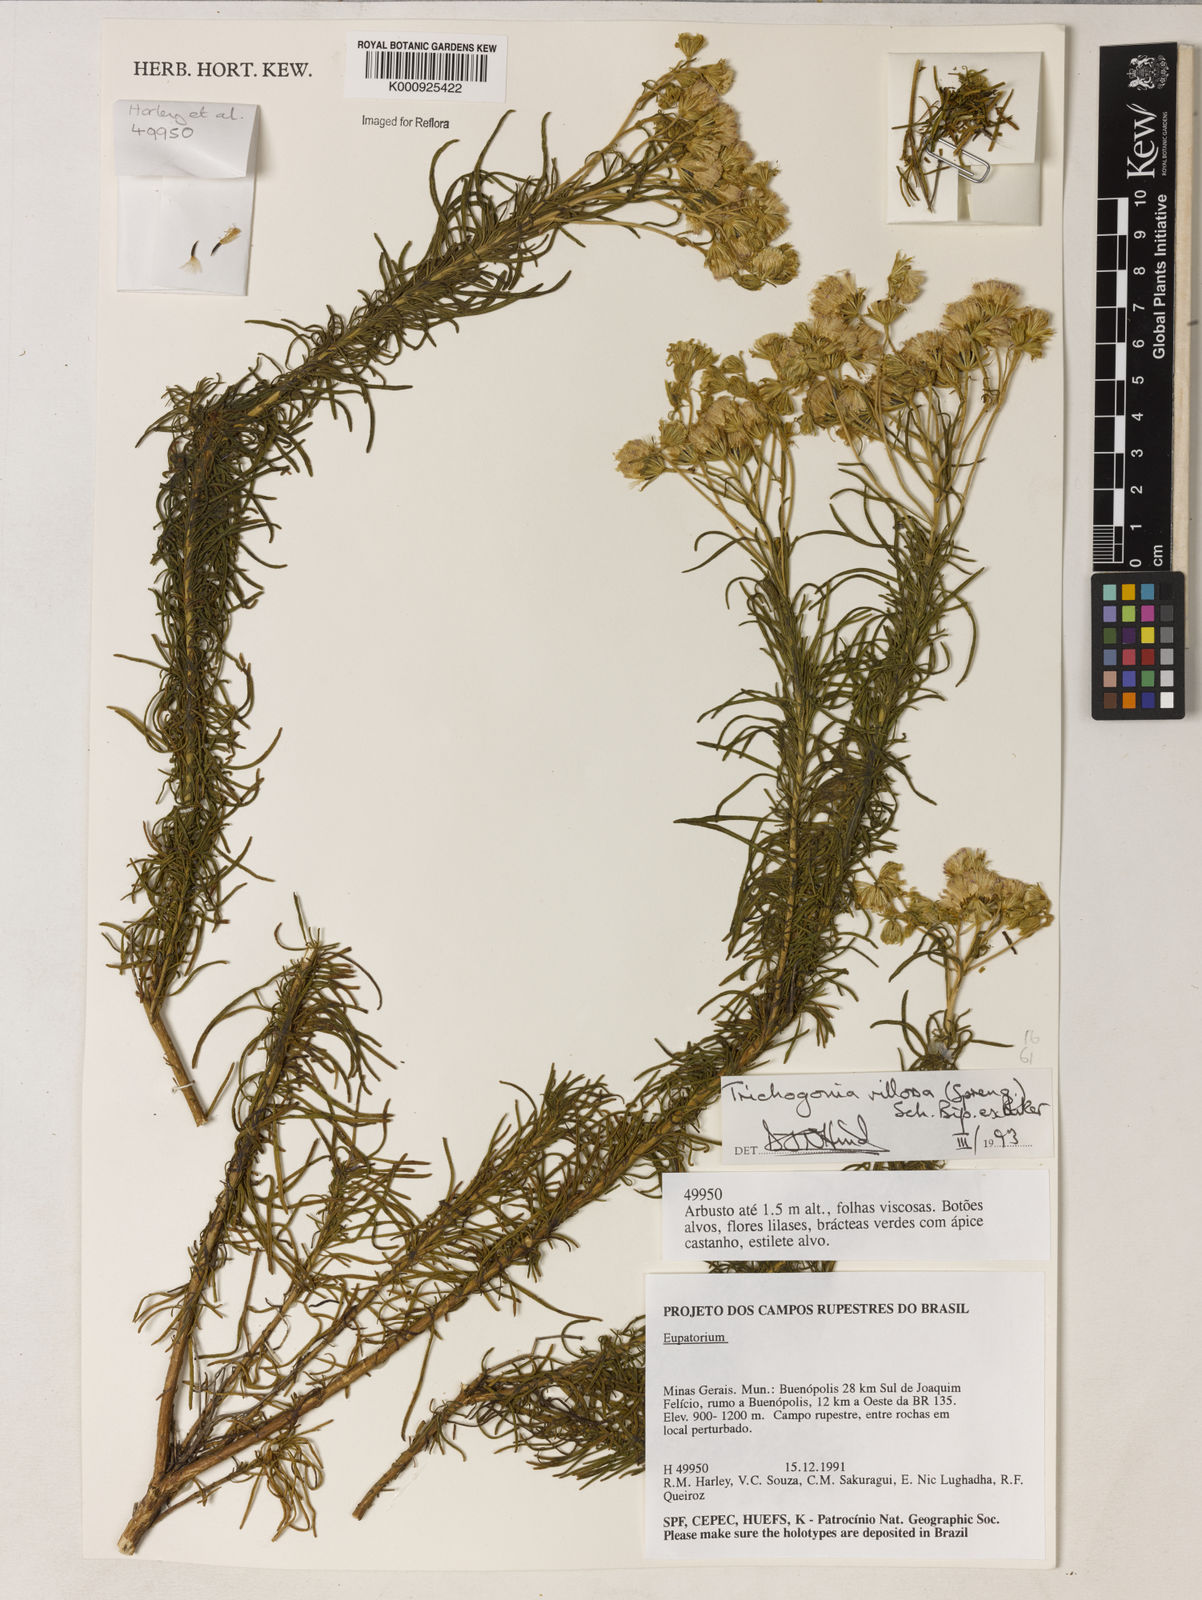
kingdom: Plantae
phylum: Tracheophyta
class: Magnoliopsida
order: Asterales
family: Asteraceae
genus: Trichogonia
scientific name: Trichogonia villosa
